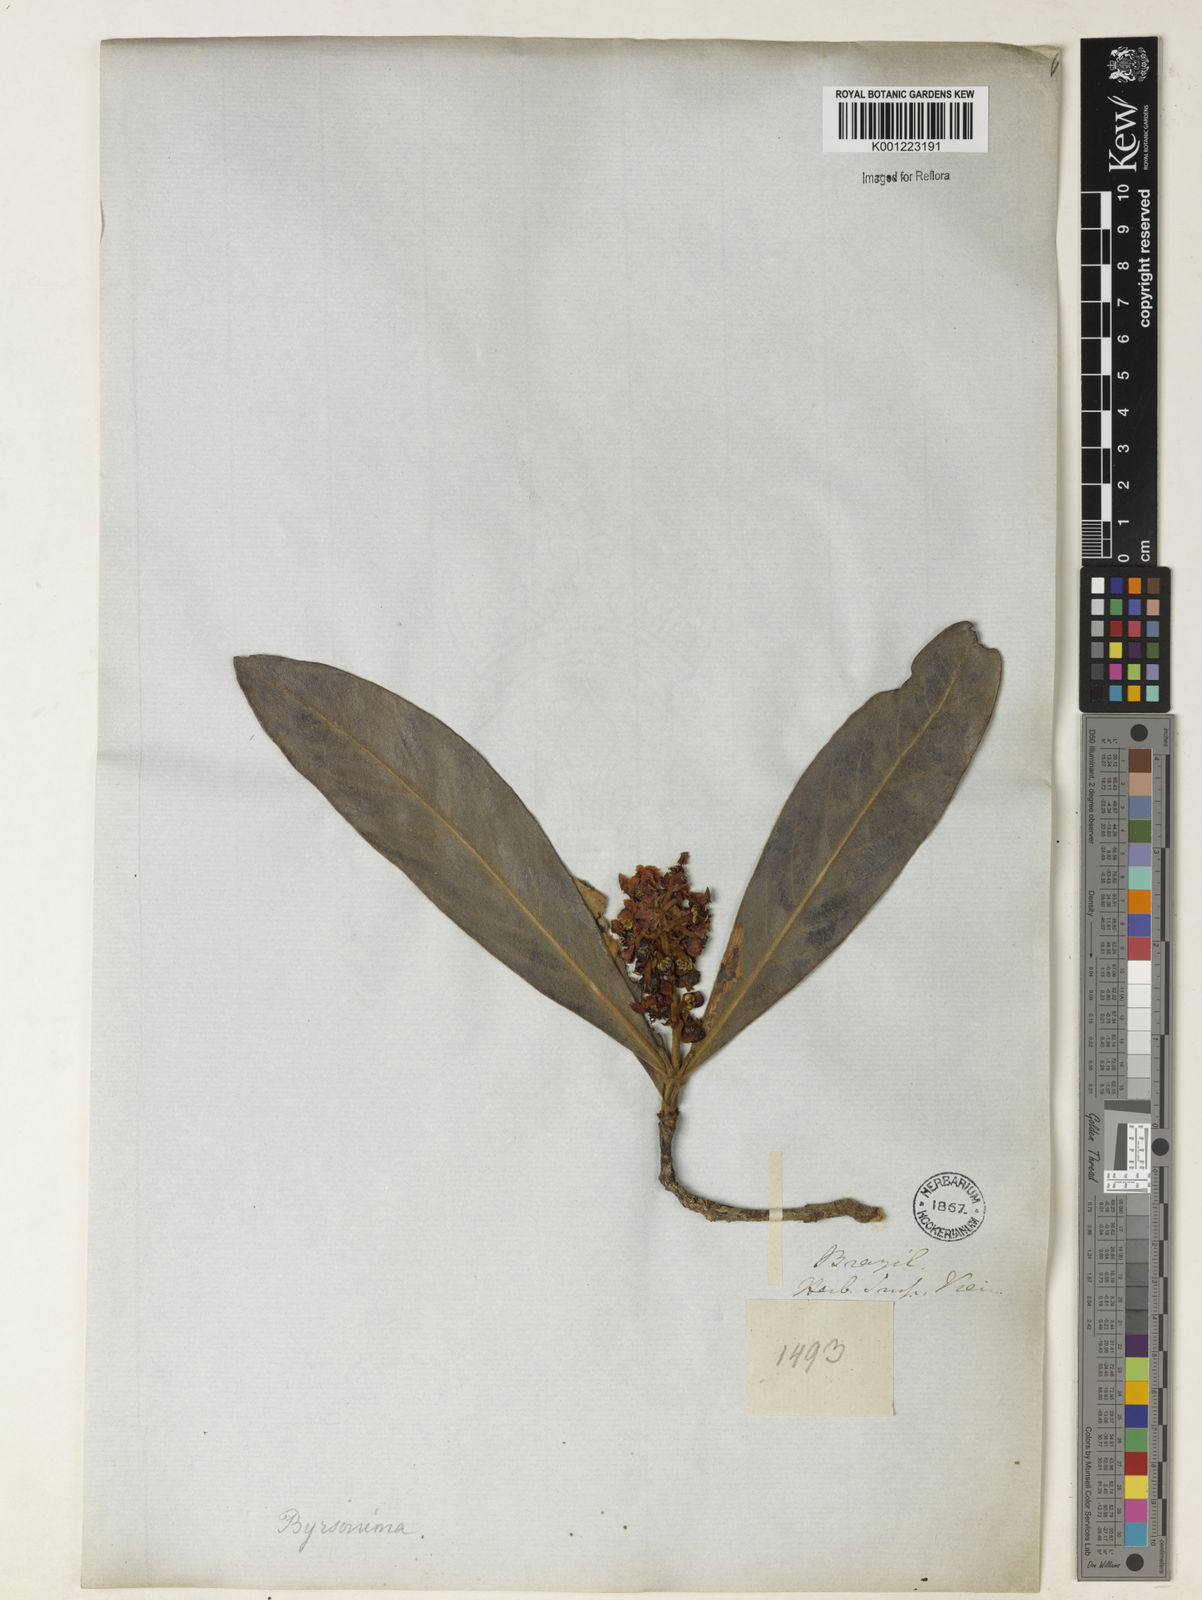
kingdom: Plantae
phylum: Tracheophyta
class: Magnoliopsida
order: Malpighiales
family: Malpighiaceae
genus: Byrsonima
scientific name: Byrsonima
